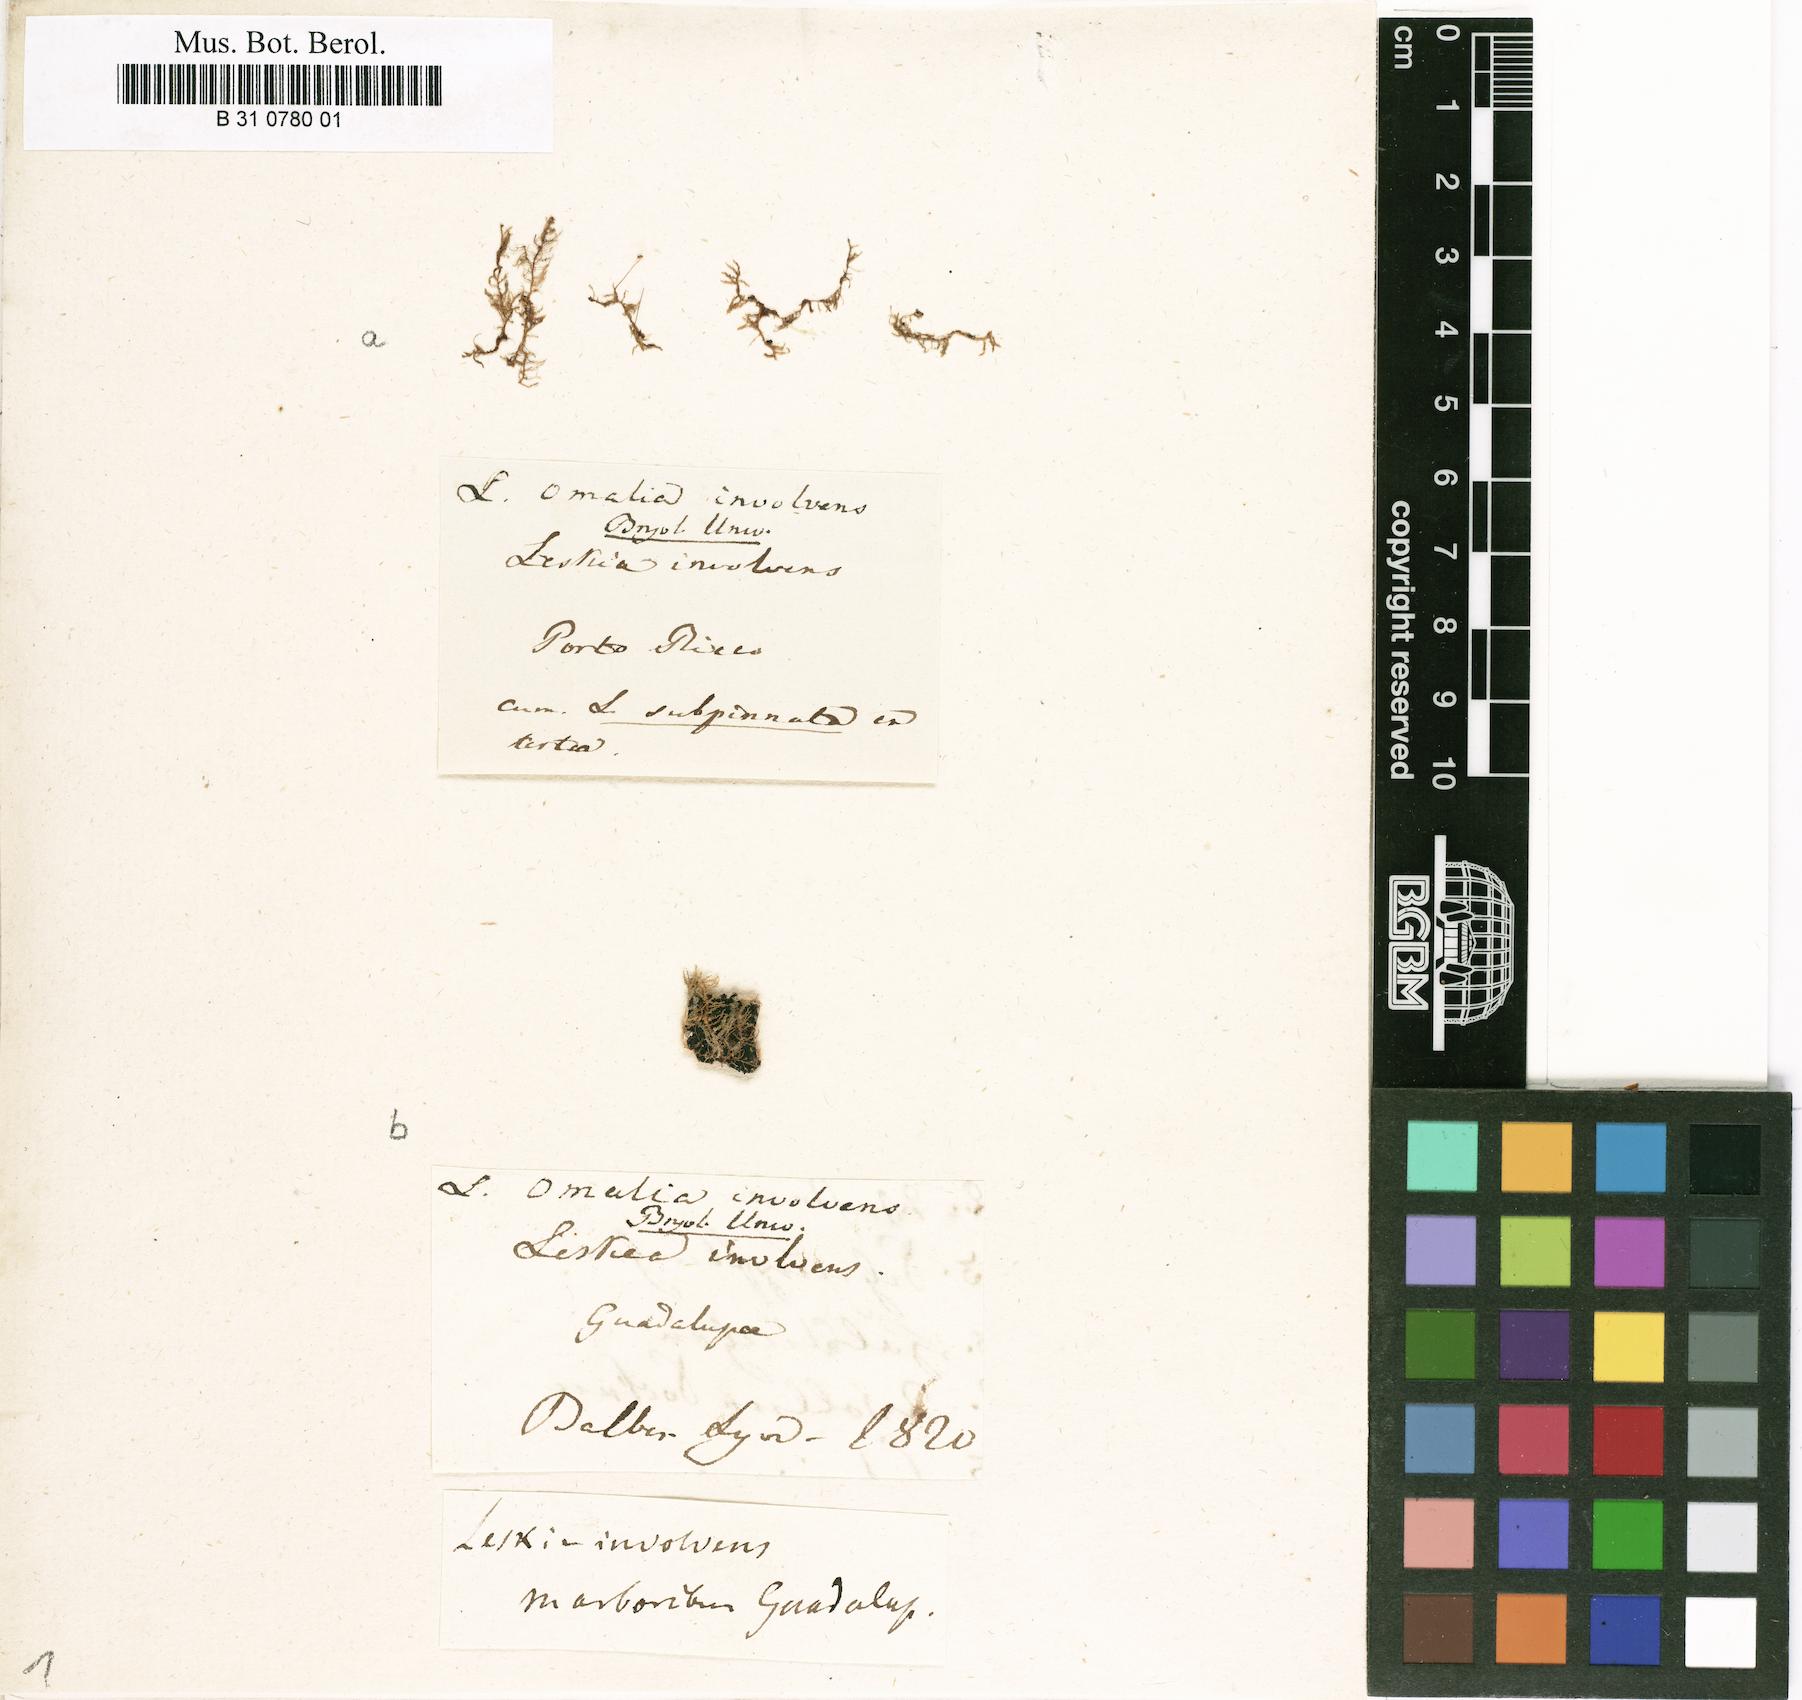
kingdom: Plantae
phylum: Bryophyta
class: Bryopsida
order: Hypnales
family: Neckeraceae
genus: Omalia
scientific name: Omalia
